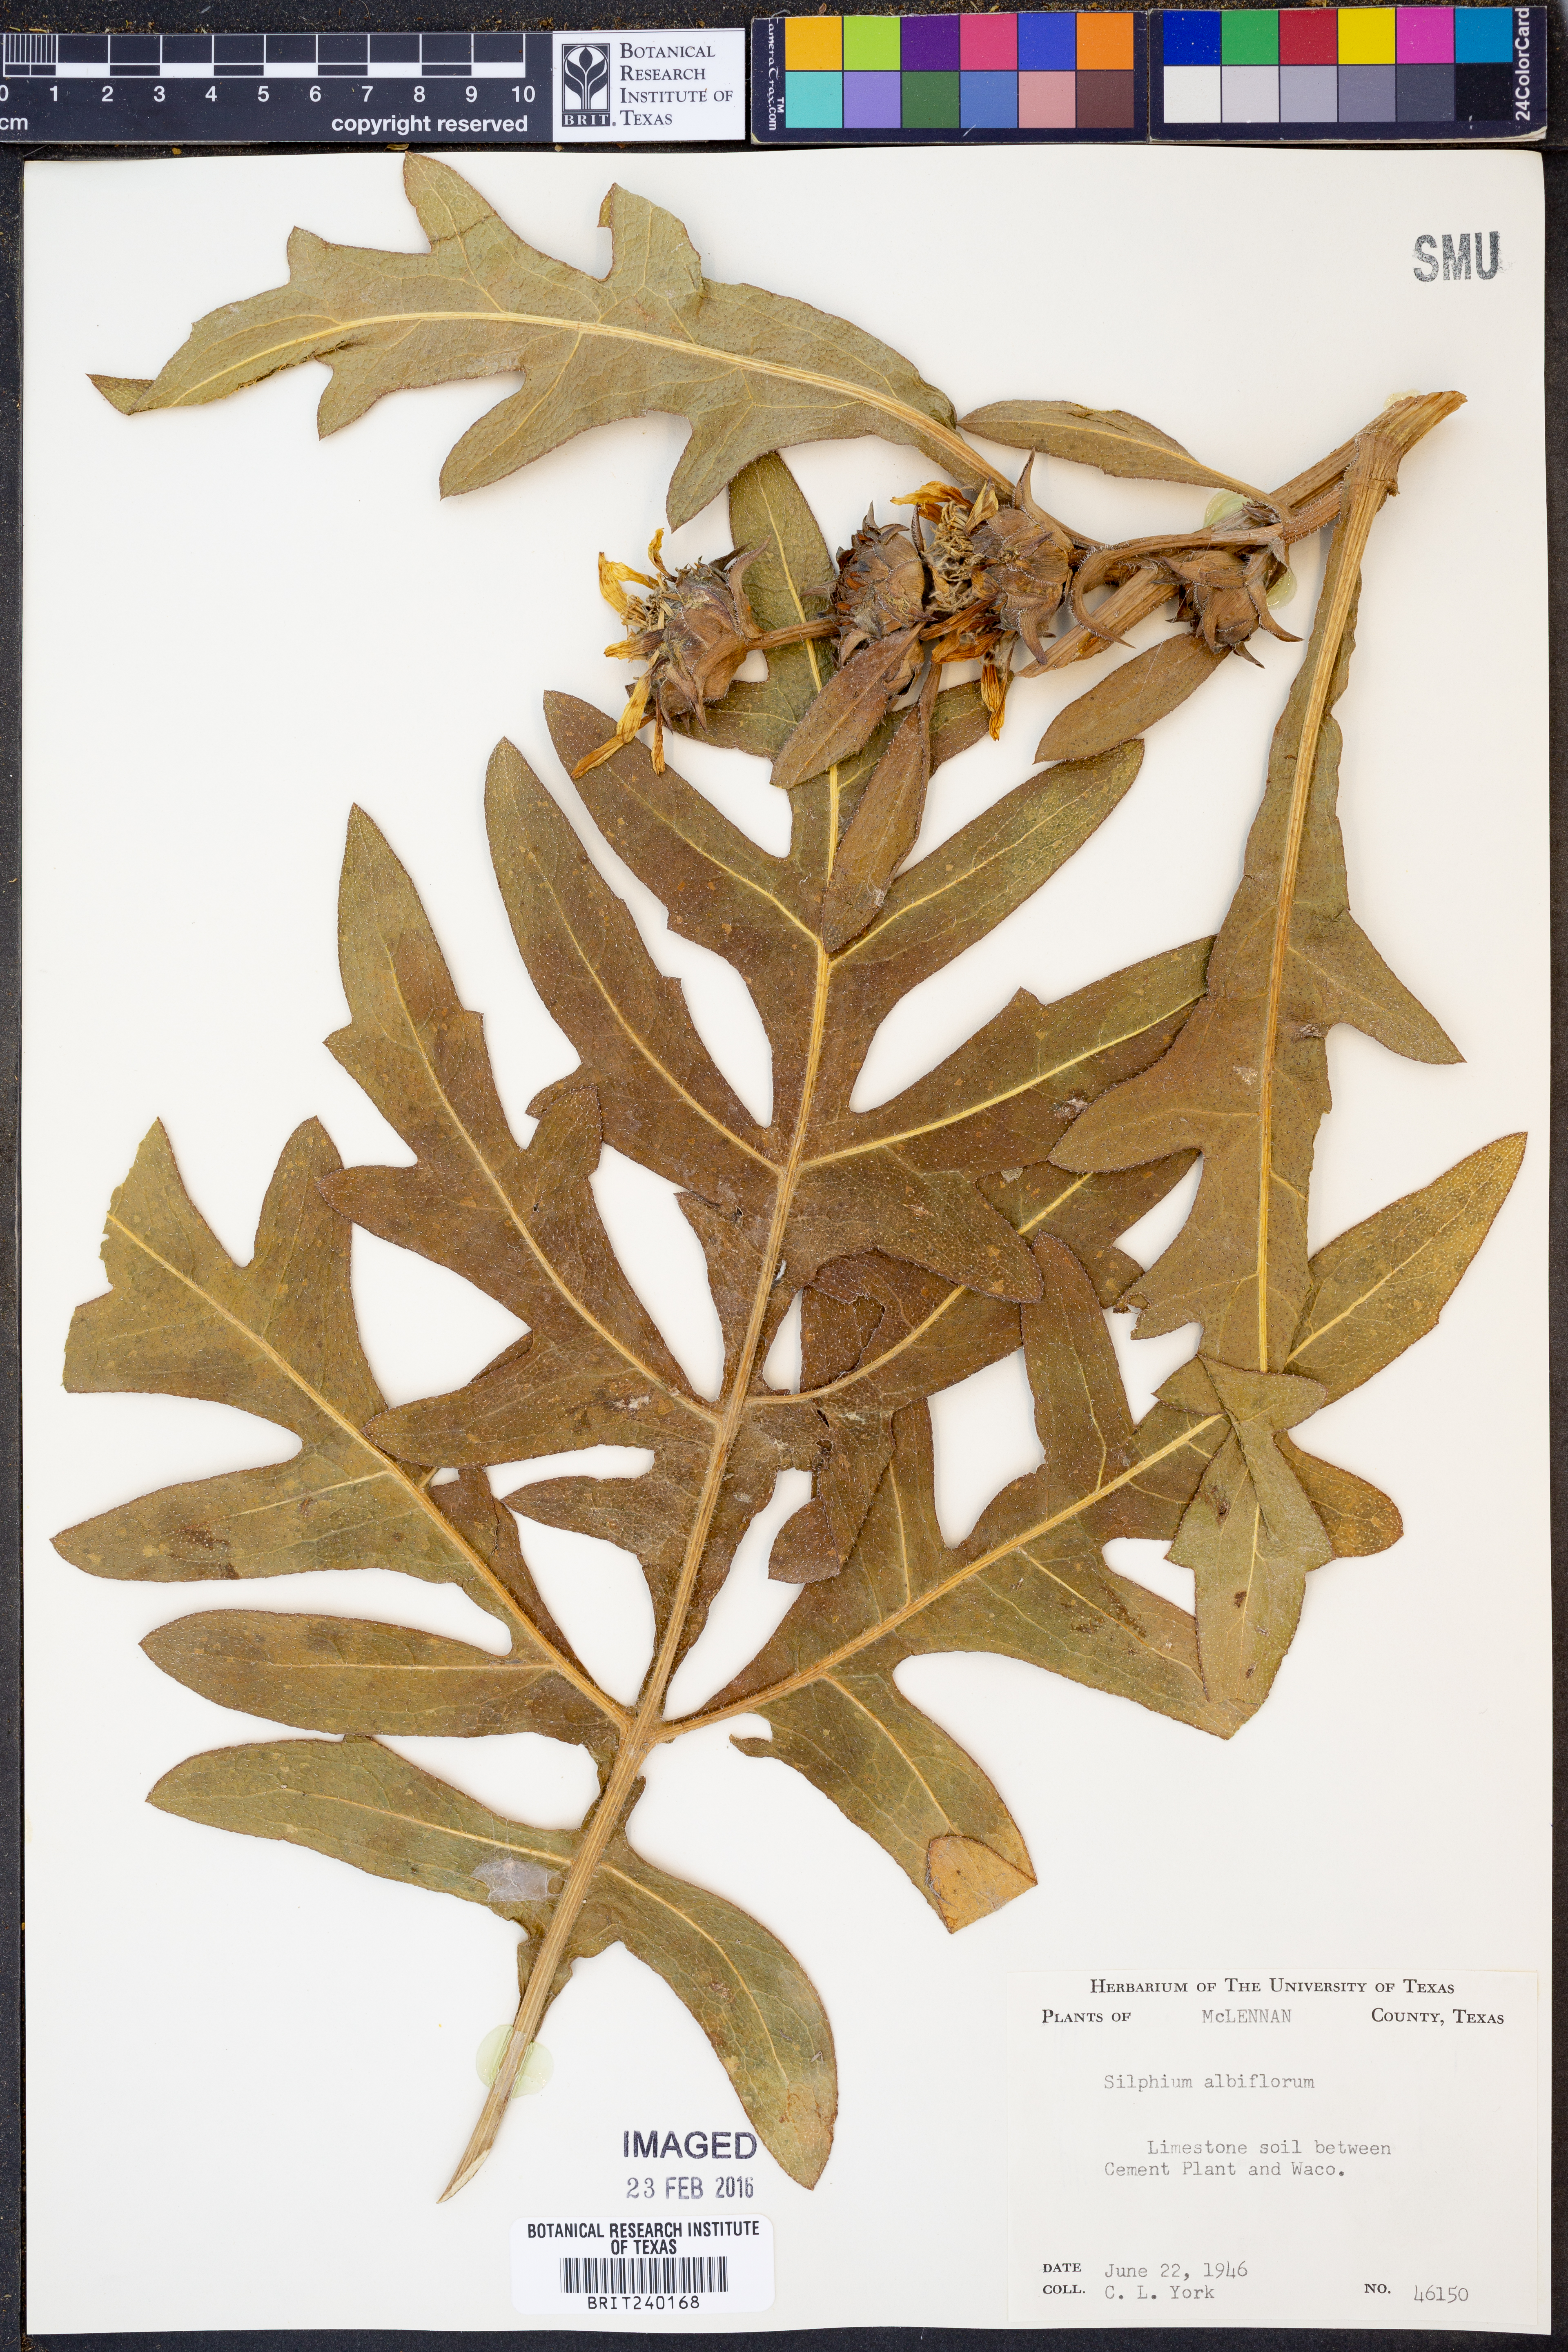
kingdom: Plantae
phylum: Tracheophyta
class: Magnoliopsida
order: Asterales
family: Asteraceae
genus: Silphium
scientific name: Silphium albiflorum
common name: White rosinweed
